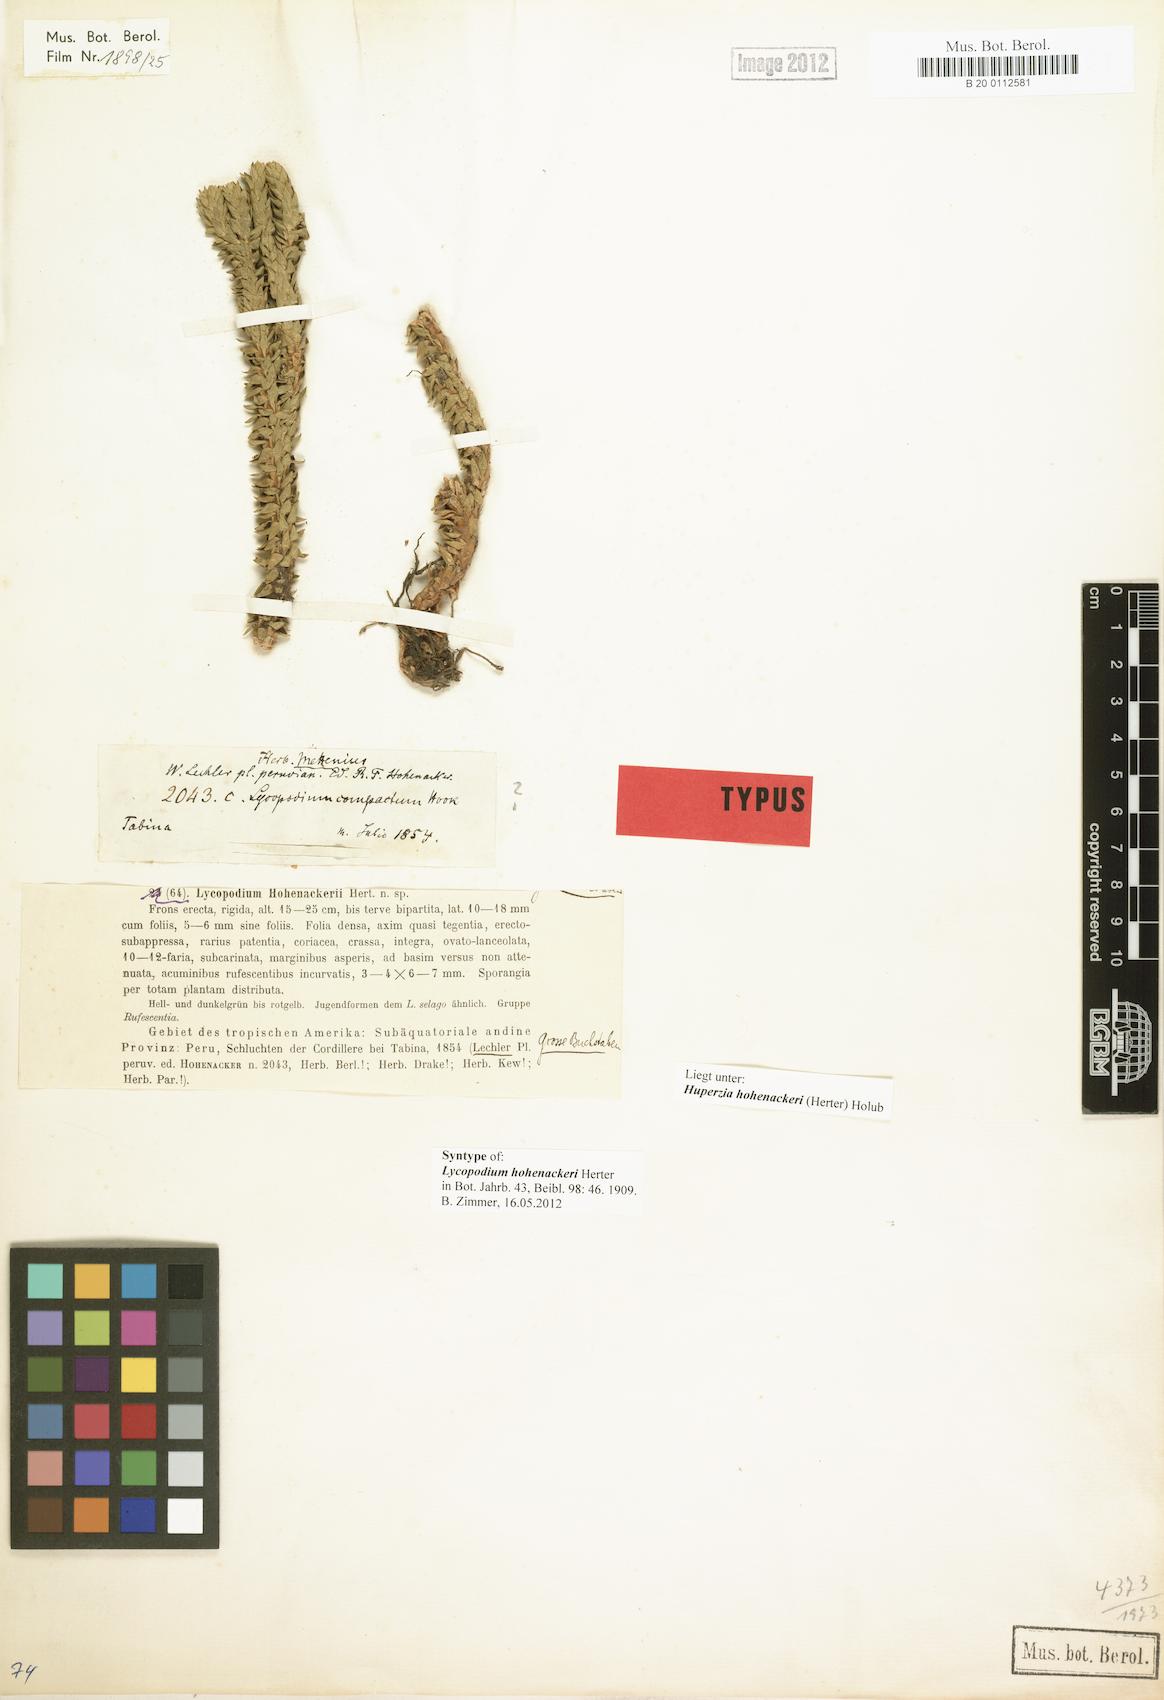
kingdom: Plantae
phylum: Tracheophyta
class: Lycopodiopsida
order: Lycopodiales
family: Lycopodiaceae
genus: Phlegmariurus
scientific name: Phlegmariurus hohenackeri
